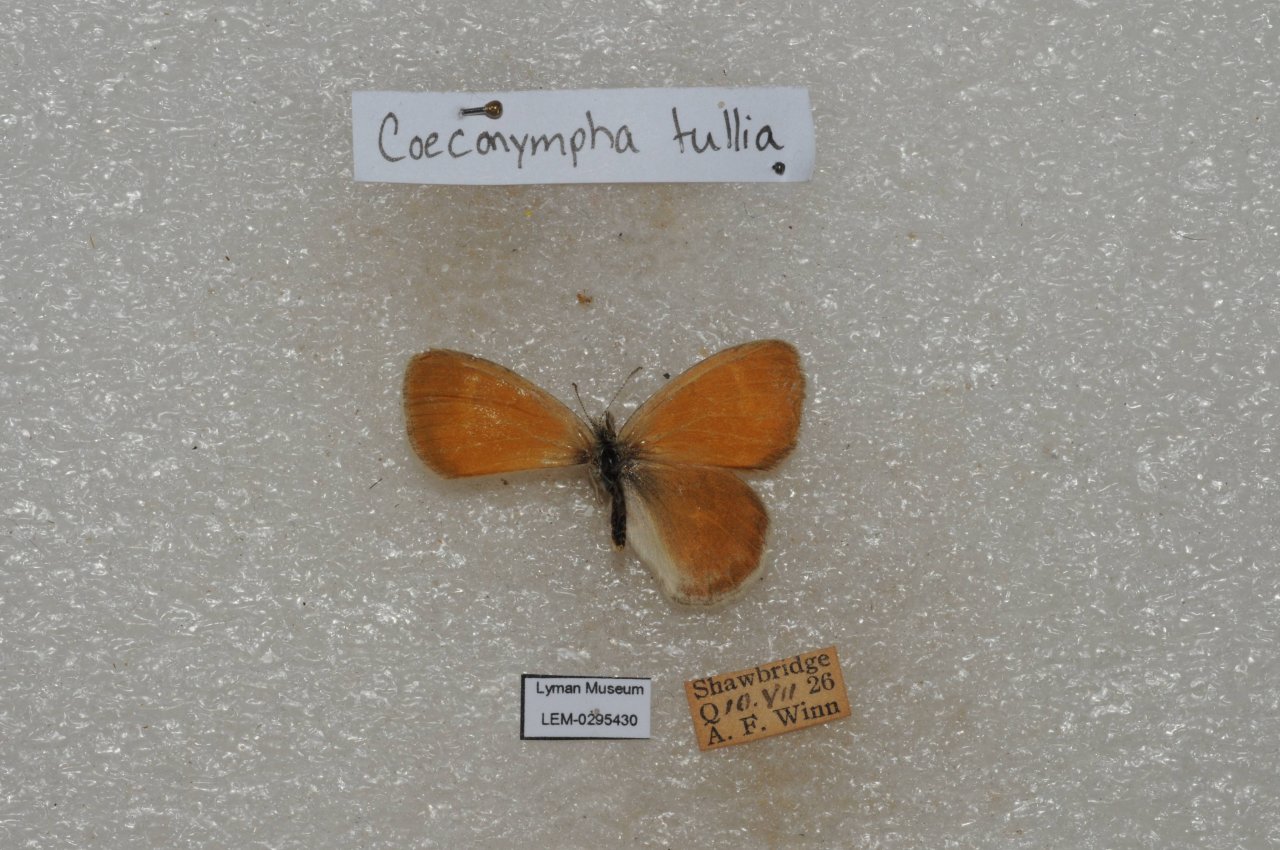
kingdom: Animalia
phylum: Arthropoda
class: Insecta
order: Lepidoptera
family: Nymphalidae
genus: Coenonympha
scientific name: Coenonympha tullia
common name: Large Heath
